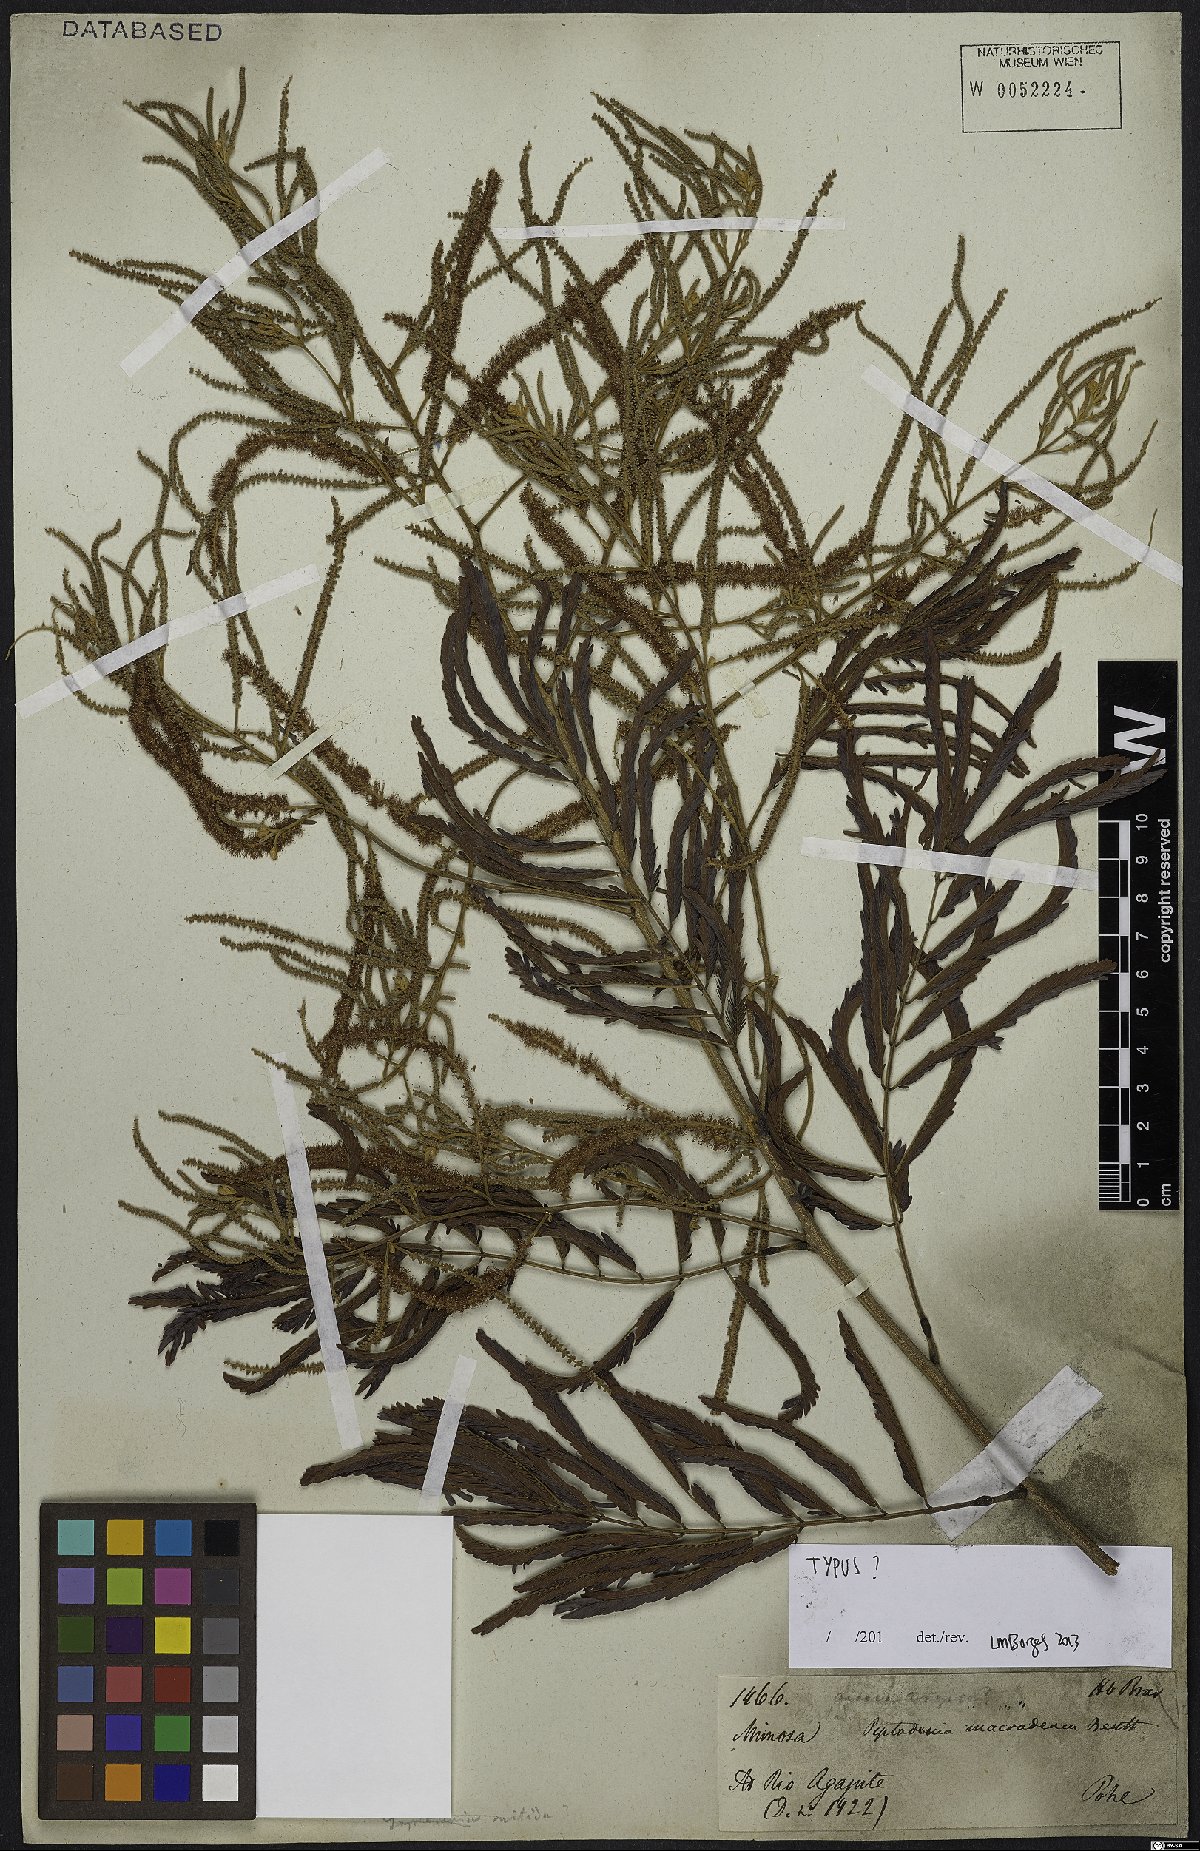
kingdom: Plantae
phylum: Tracheophyta
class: Magnoliopsida
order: Fabales
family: Fabaceae
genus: Piptadenia
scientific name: Piptadenia macradenia
